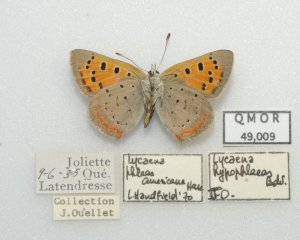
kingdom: Animalia
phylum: Arthropoda
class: Insecta
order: Lepidoptera
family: Lycaenidae
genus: Lycaena
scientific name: Lycaena phlaeas
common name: American Copper
